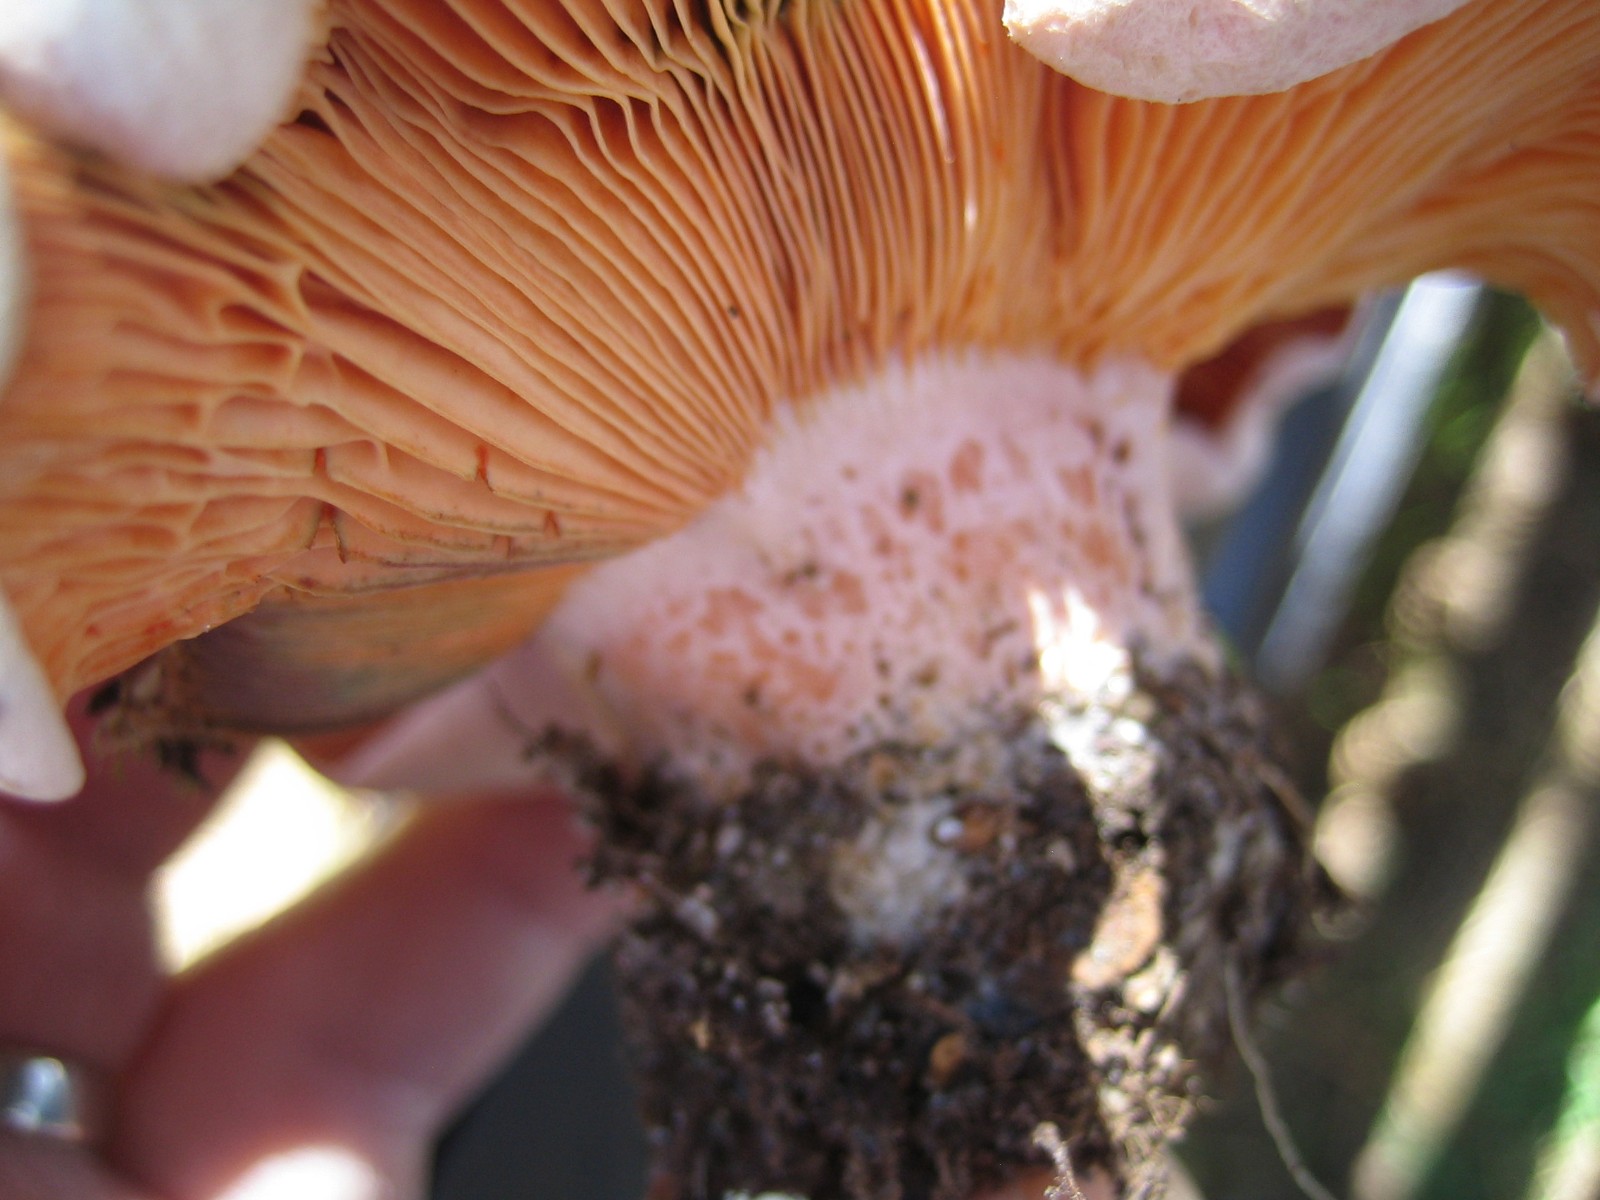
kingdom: Fungi
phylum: Basidiomycota
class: Agaricomycetes
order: Russulales
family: Russulaceae
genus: Lactarius
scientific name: Lactarius deliciosus
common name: velsmagende mælkehat
